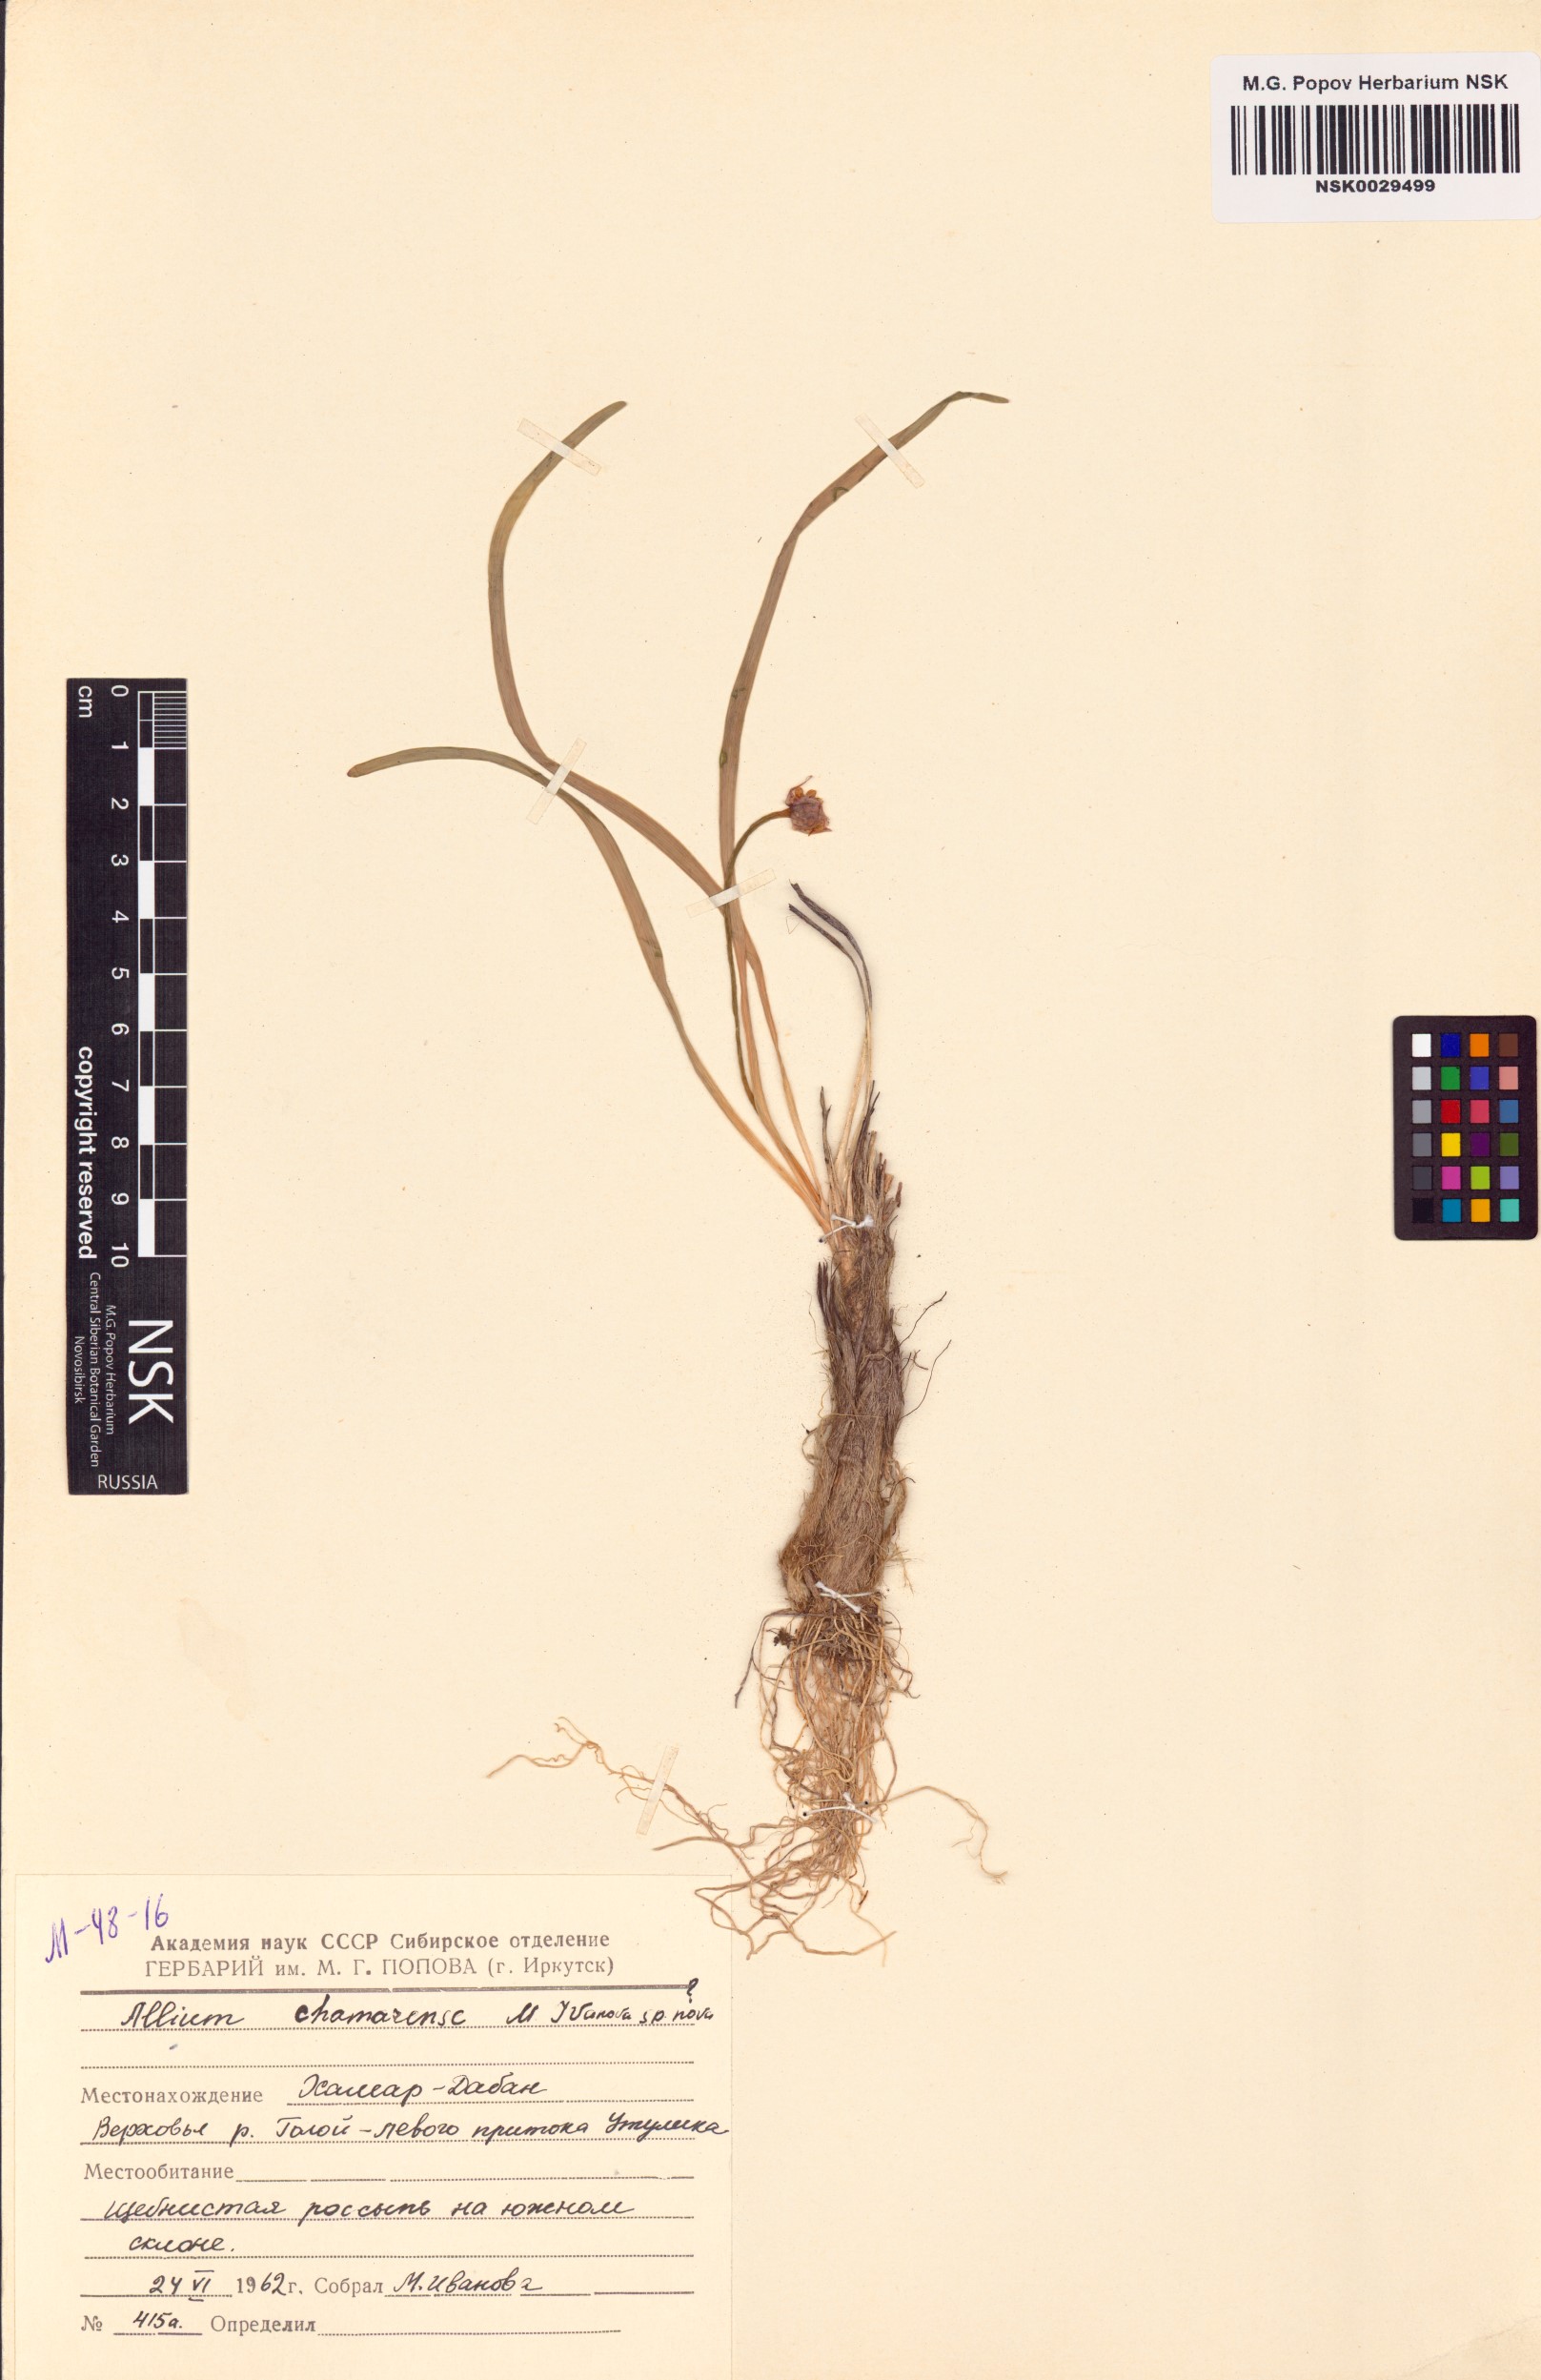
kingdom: Plantae
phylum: Tracheophyta
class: Liliopsida
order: Asparagales
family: Amaryllidaceae
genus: Allium
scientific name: Allium chamarense
